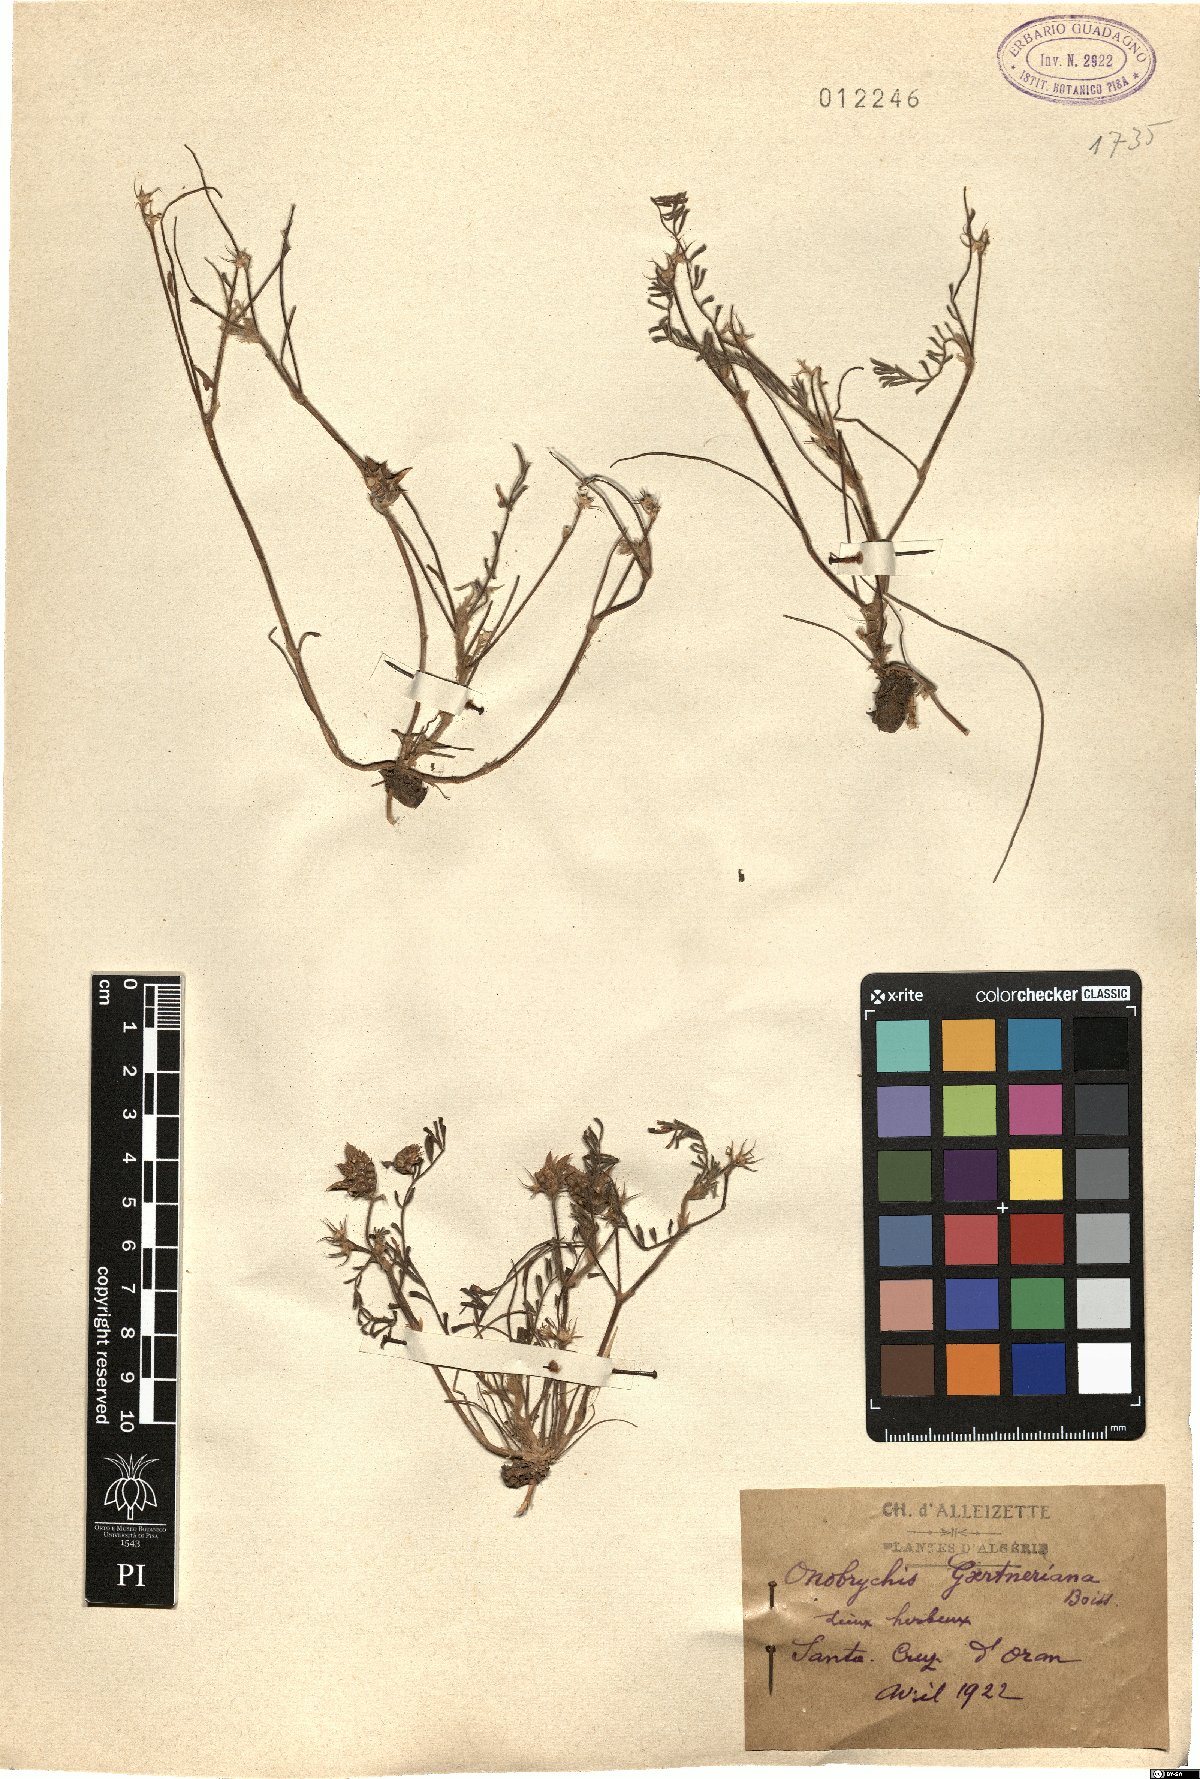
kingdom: Plantae
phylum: Tracheophyta
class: Magnoliopsida
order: Fabales
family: Fabaceae
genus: Onobrychis
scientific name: Onobrychis squarrosa
